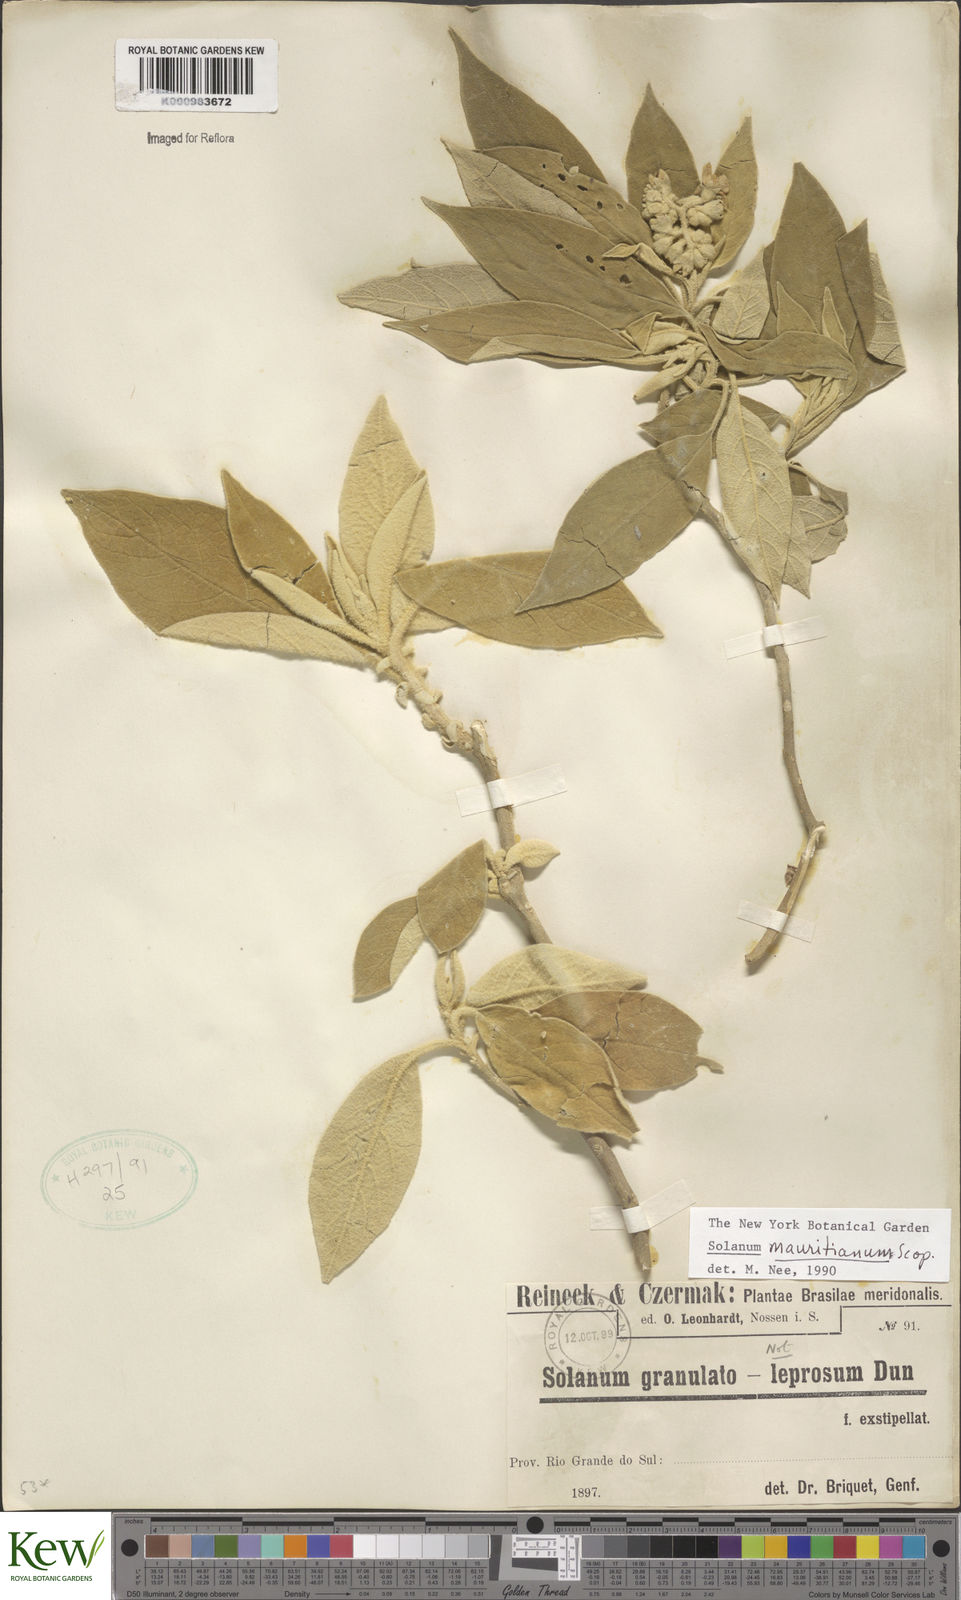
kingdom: Plantae
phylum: Tracheophyta
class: Magnoliopsida
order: Solanales
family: Solanaceae
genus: Solanum
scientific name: Solanum mauritianum
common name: Earleaf nightshade
